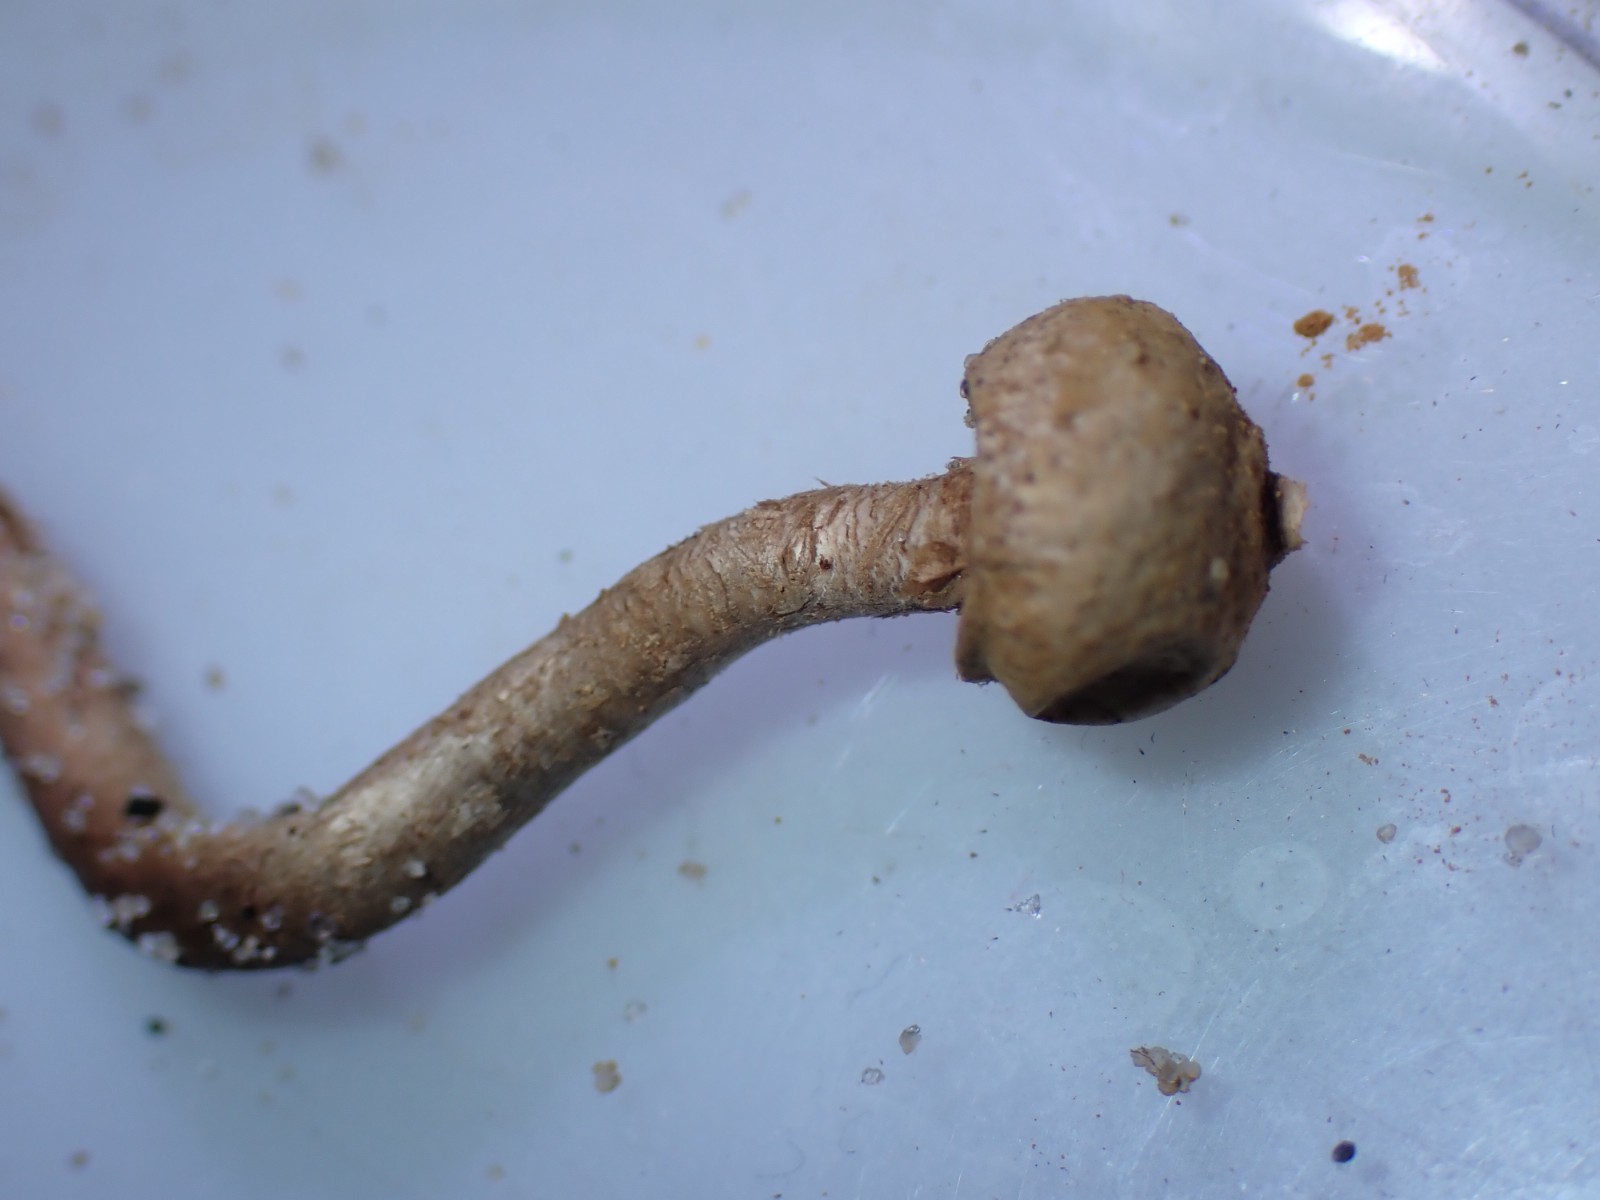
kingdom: Fungi
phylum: Basidiomycota
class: Agaricomycetes
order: Agaricales
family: Agaricaceae
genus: Tulostoma
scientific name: Tulostoma brumale
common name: vinter-stilkbovist
